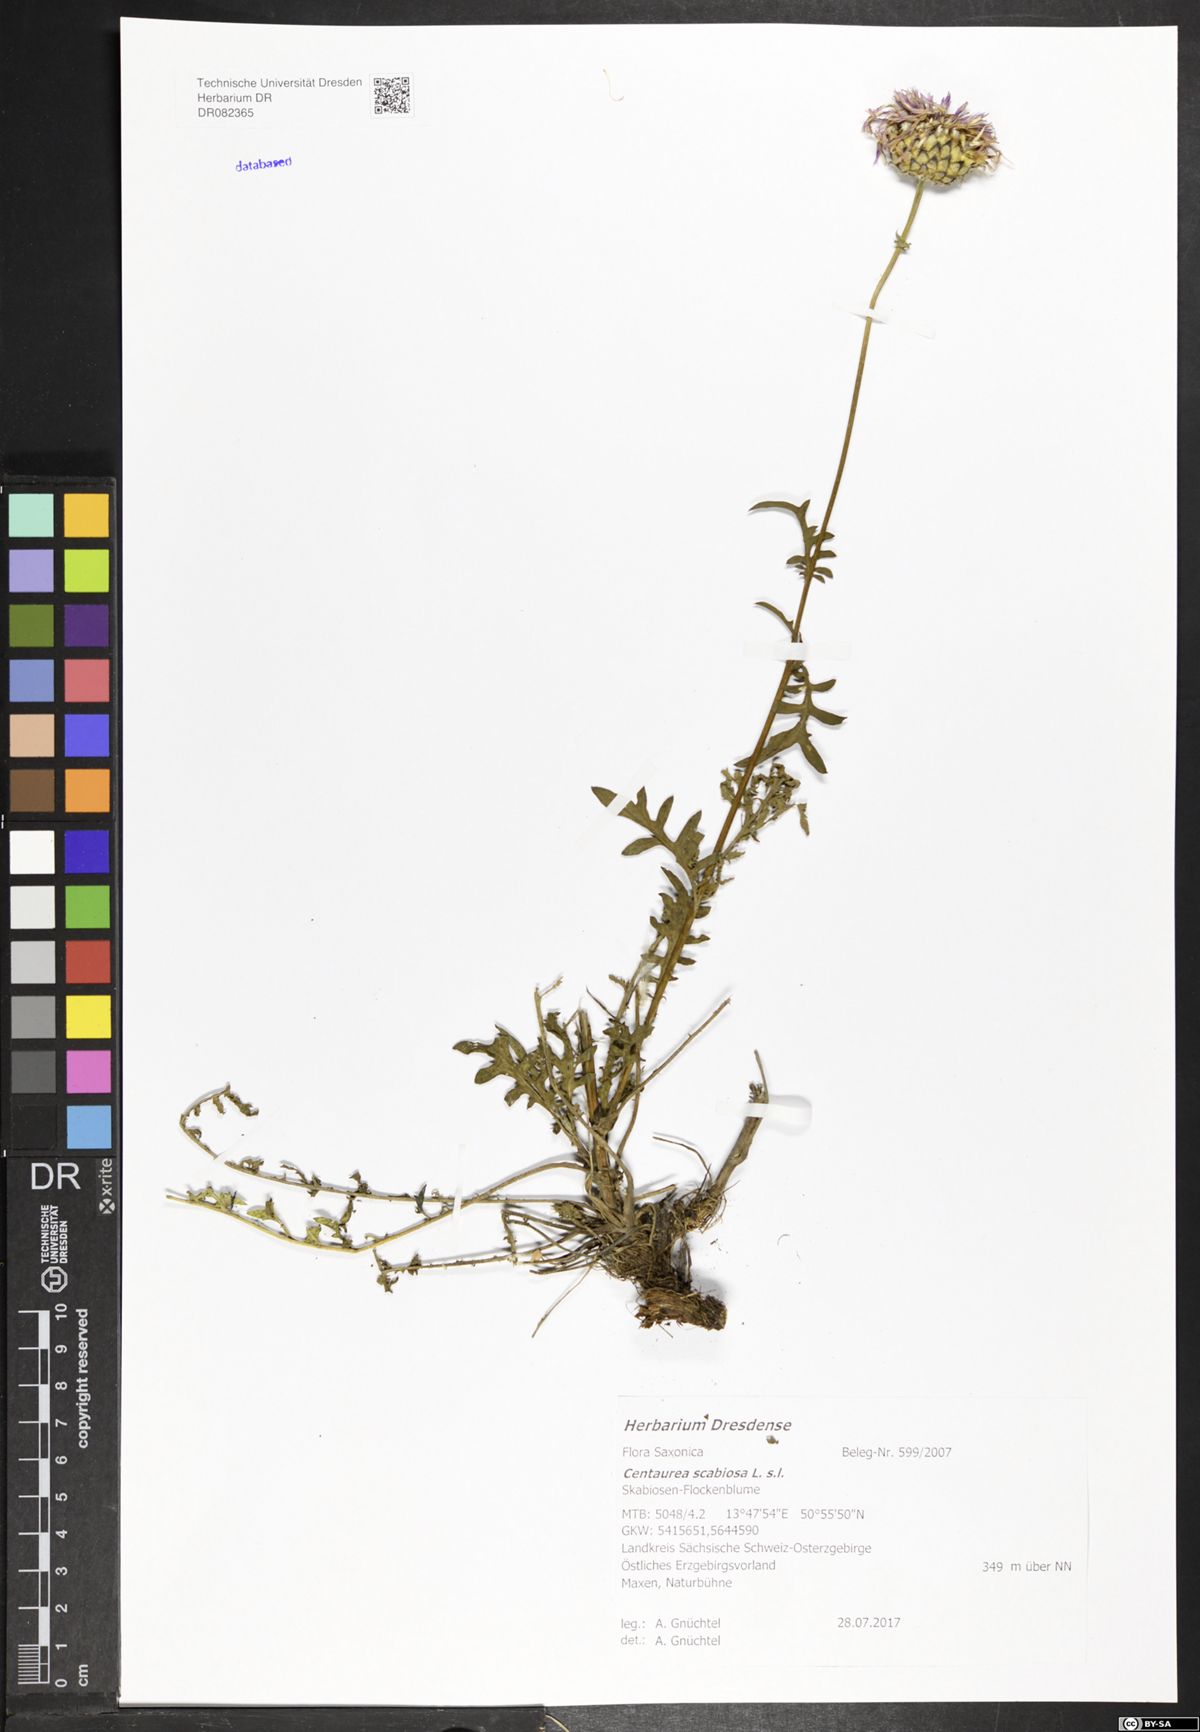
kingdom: Plantae
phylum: Tracheophyta
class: Magnoliopsida
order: Asterales
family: Asteraceae
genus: Centaurea
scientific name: Centaurea scabiosa
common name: Greater knapweed
